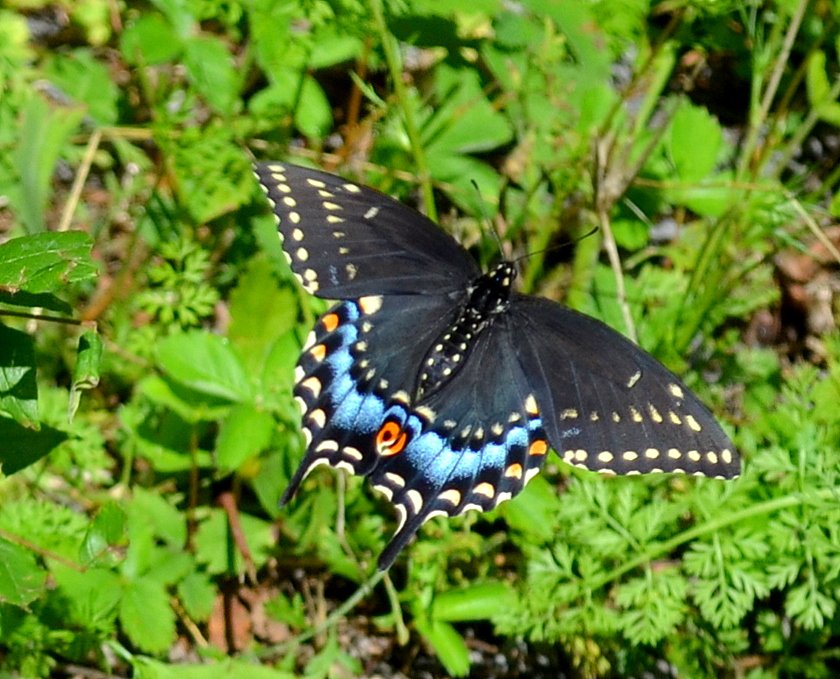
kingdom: Animalia
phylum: Arthropoda
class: Insecta
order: Lepidoptera
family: Papilionidae
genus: Papilio
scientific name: Papilio polyxenes
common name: Black Swallowtail
